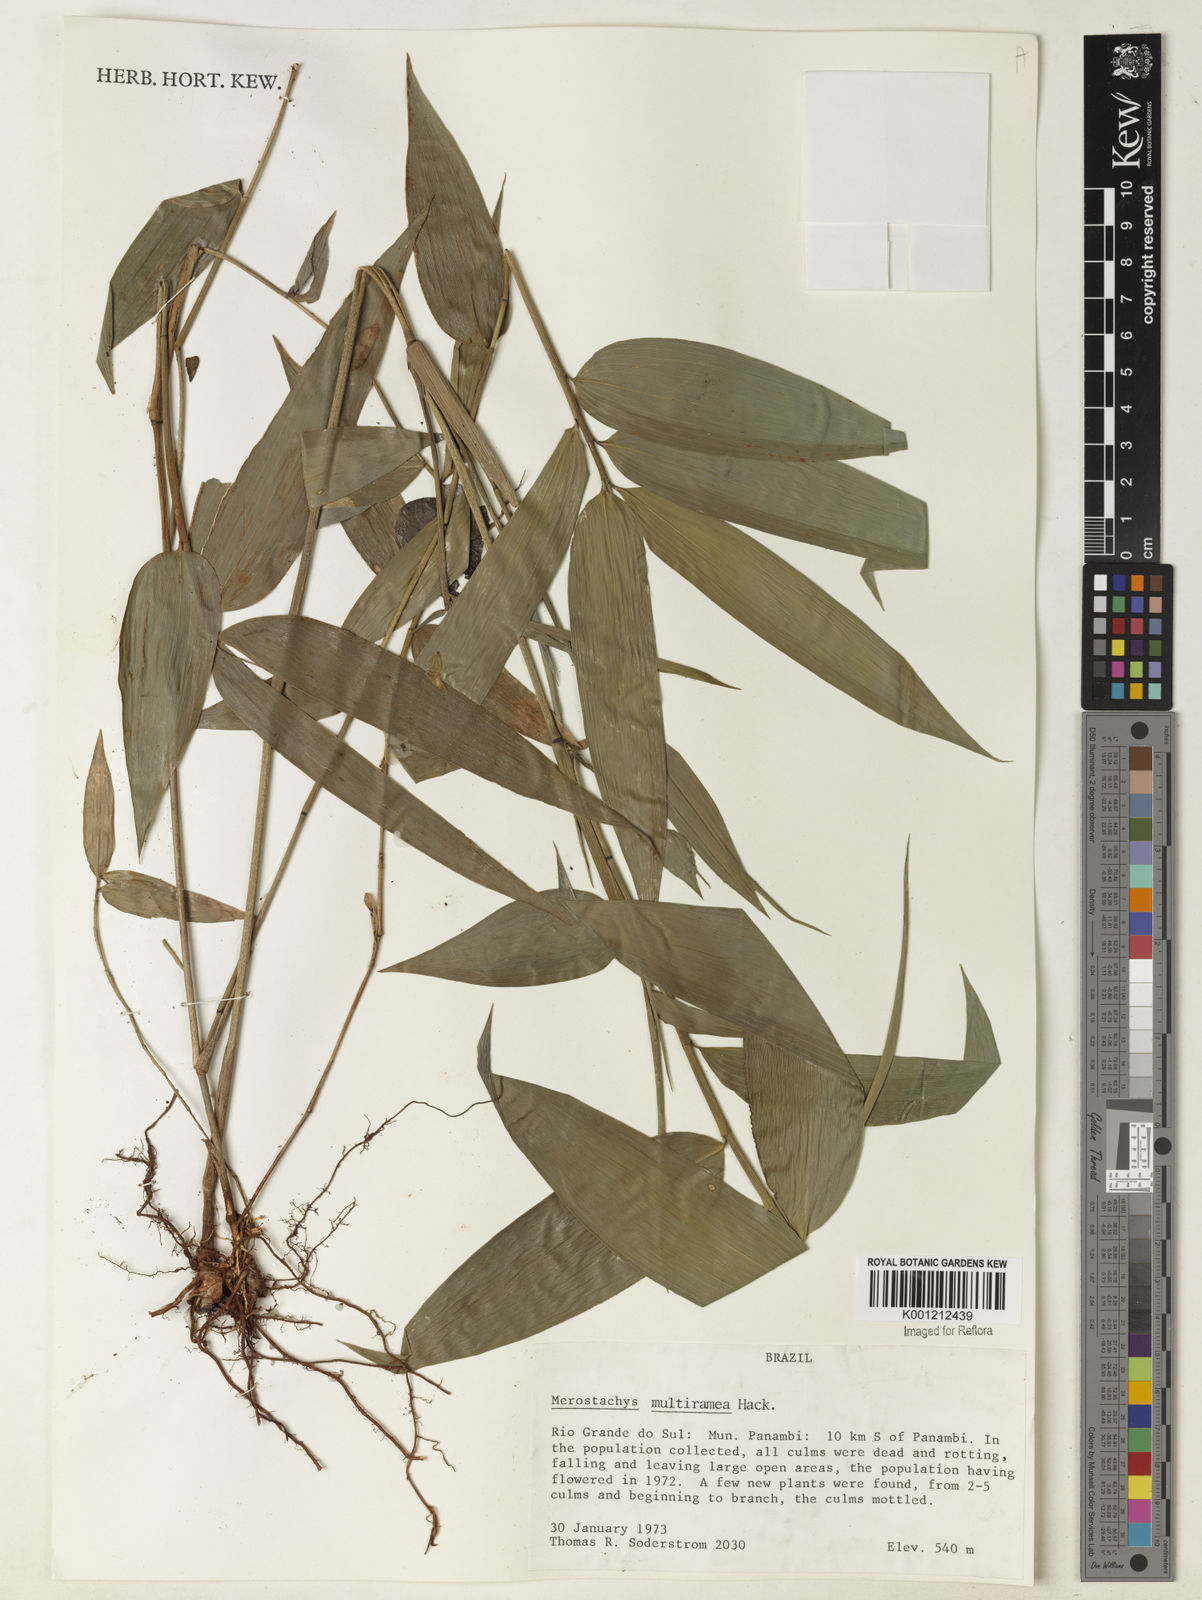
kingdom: Plantae
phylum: Tracheophyta
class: Liliopsida
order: Poales
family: Poaceae
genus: Merostachys
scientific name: Merostachys multiramea
